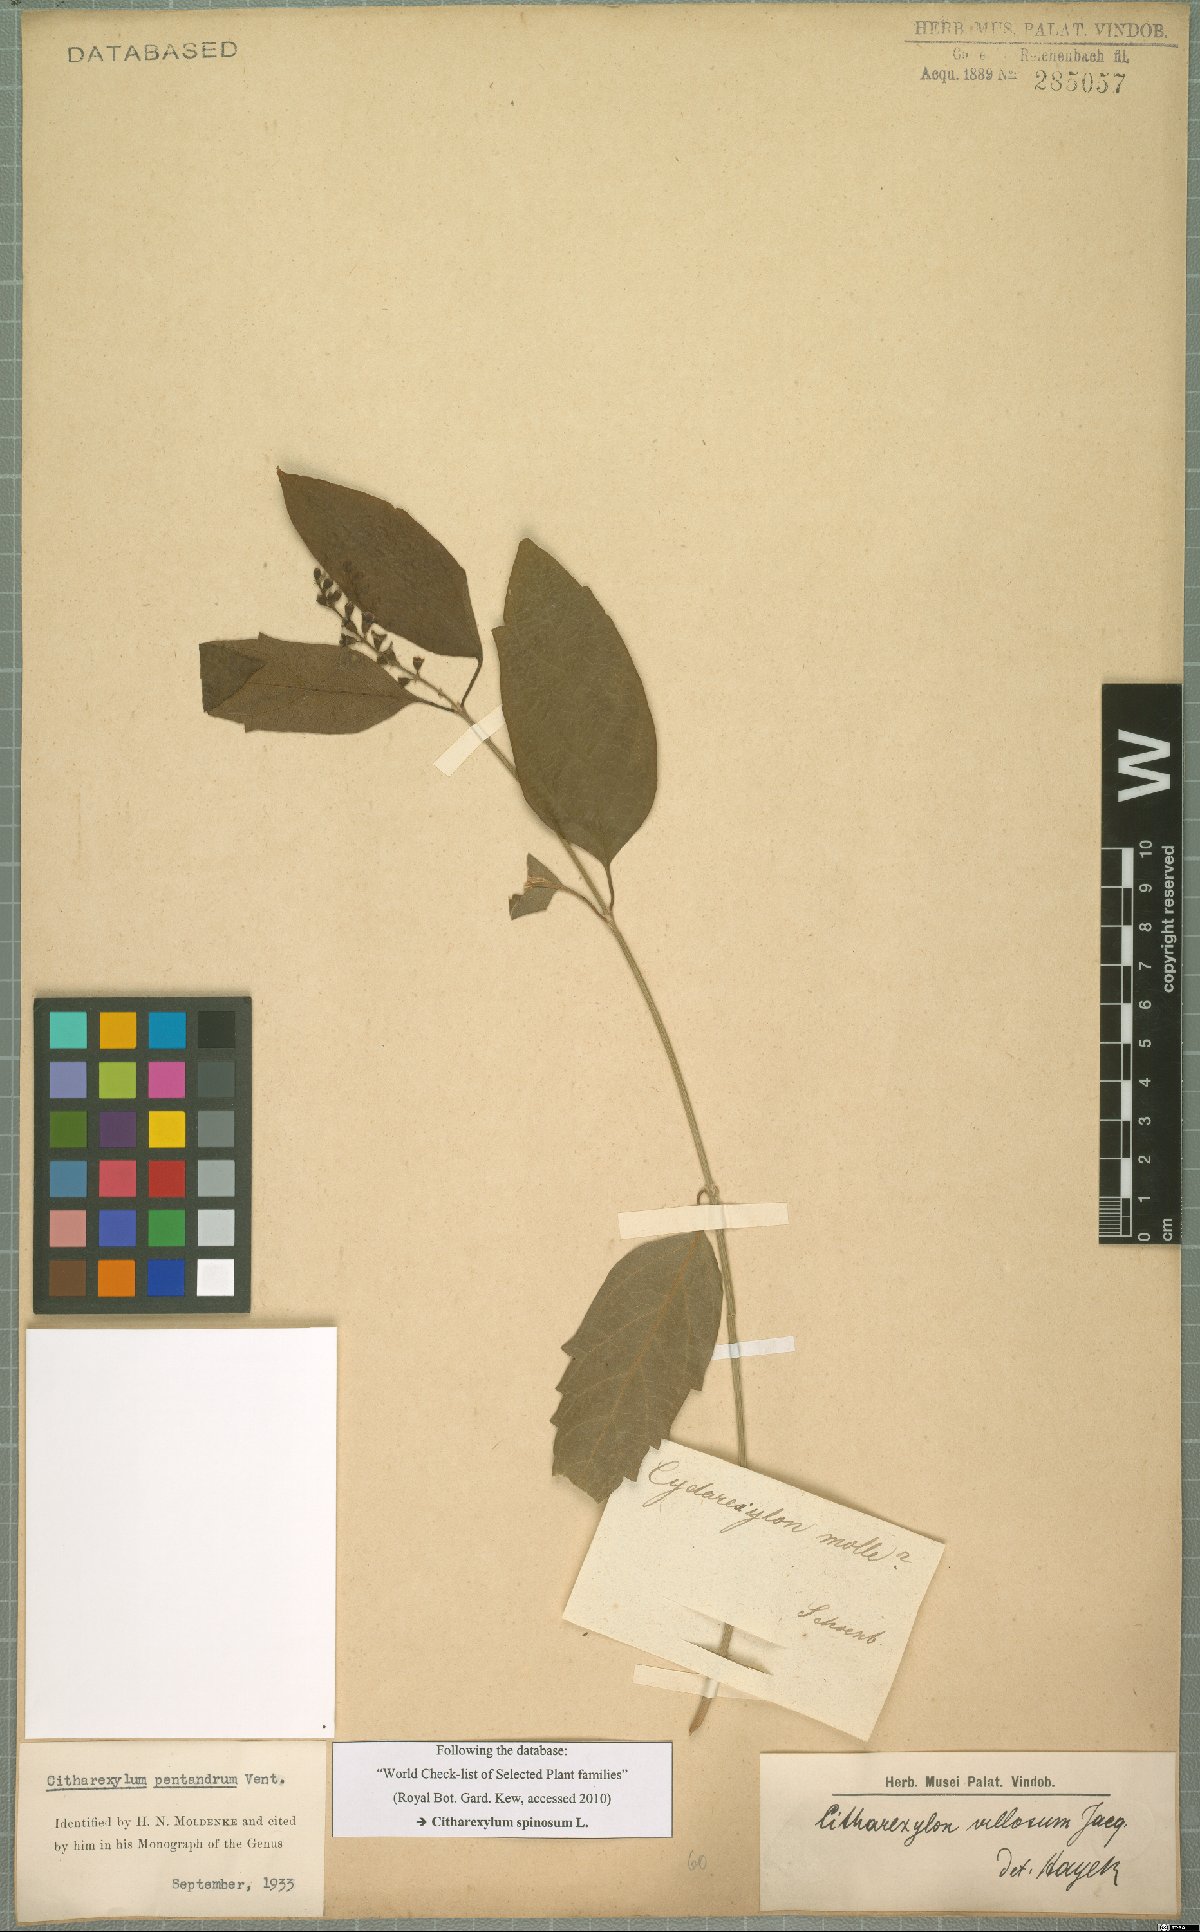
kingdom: Plantae
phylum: Tracheophyta
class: Magnoliopsida
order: Lamiales
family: Verbenaceae
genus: Citharexylum
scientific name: Citharexylum spinosum
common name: Fiddlewood
